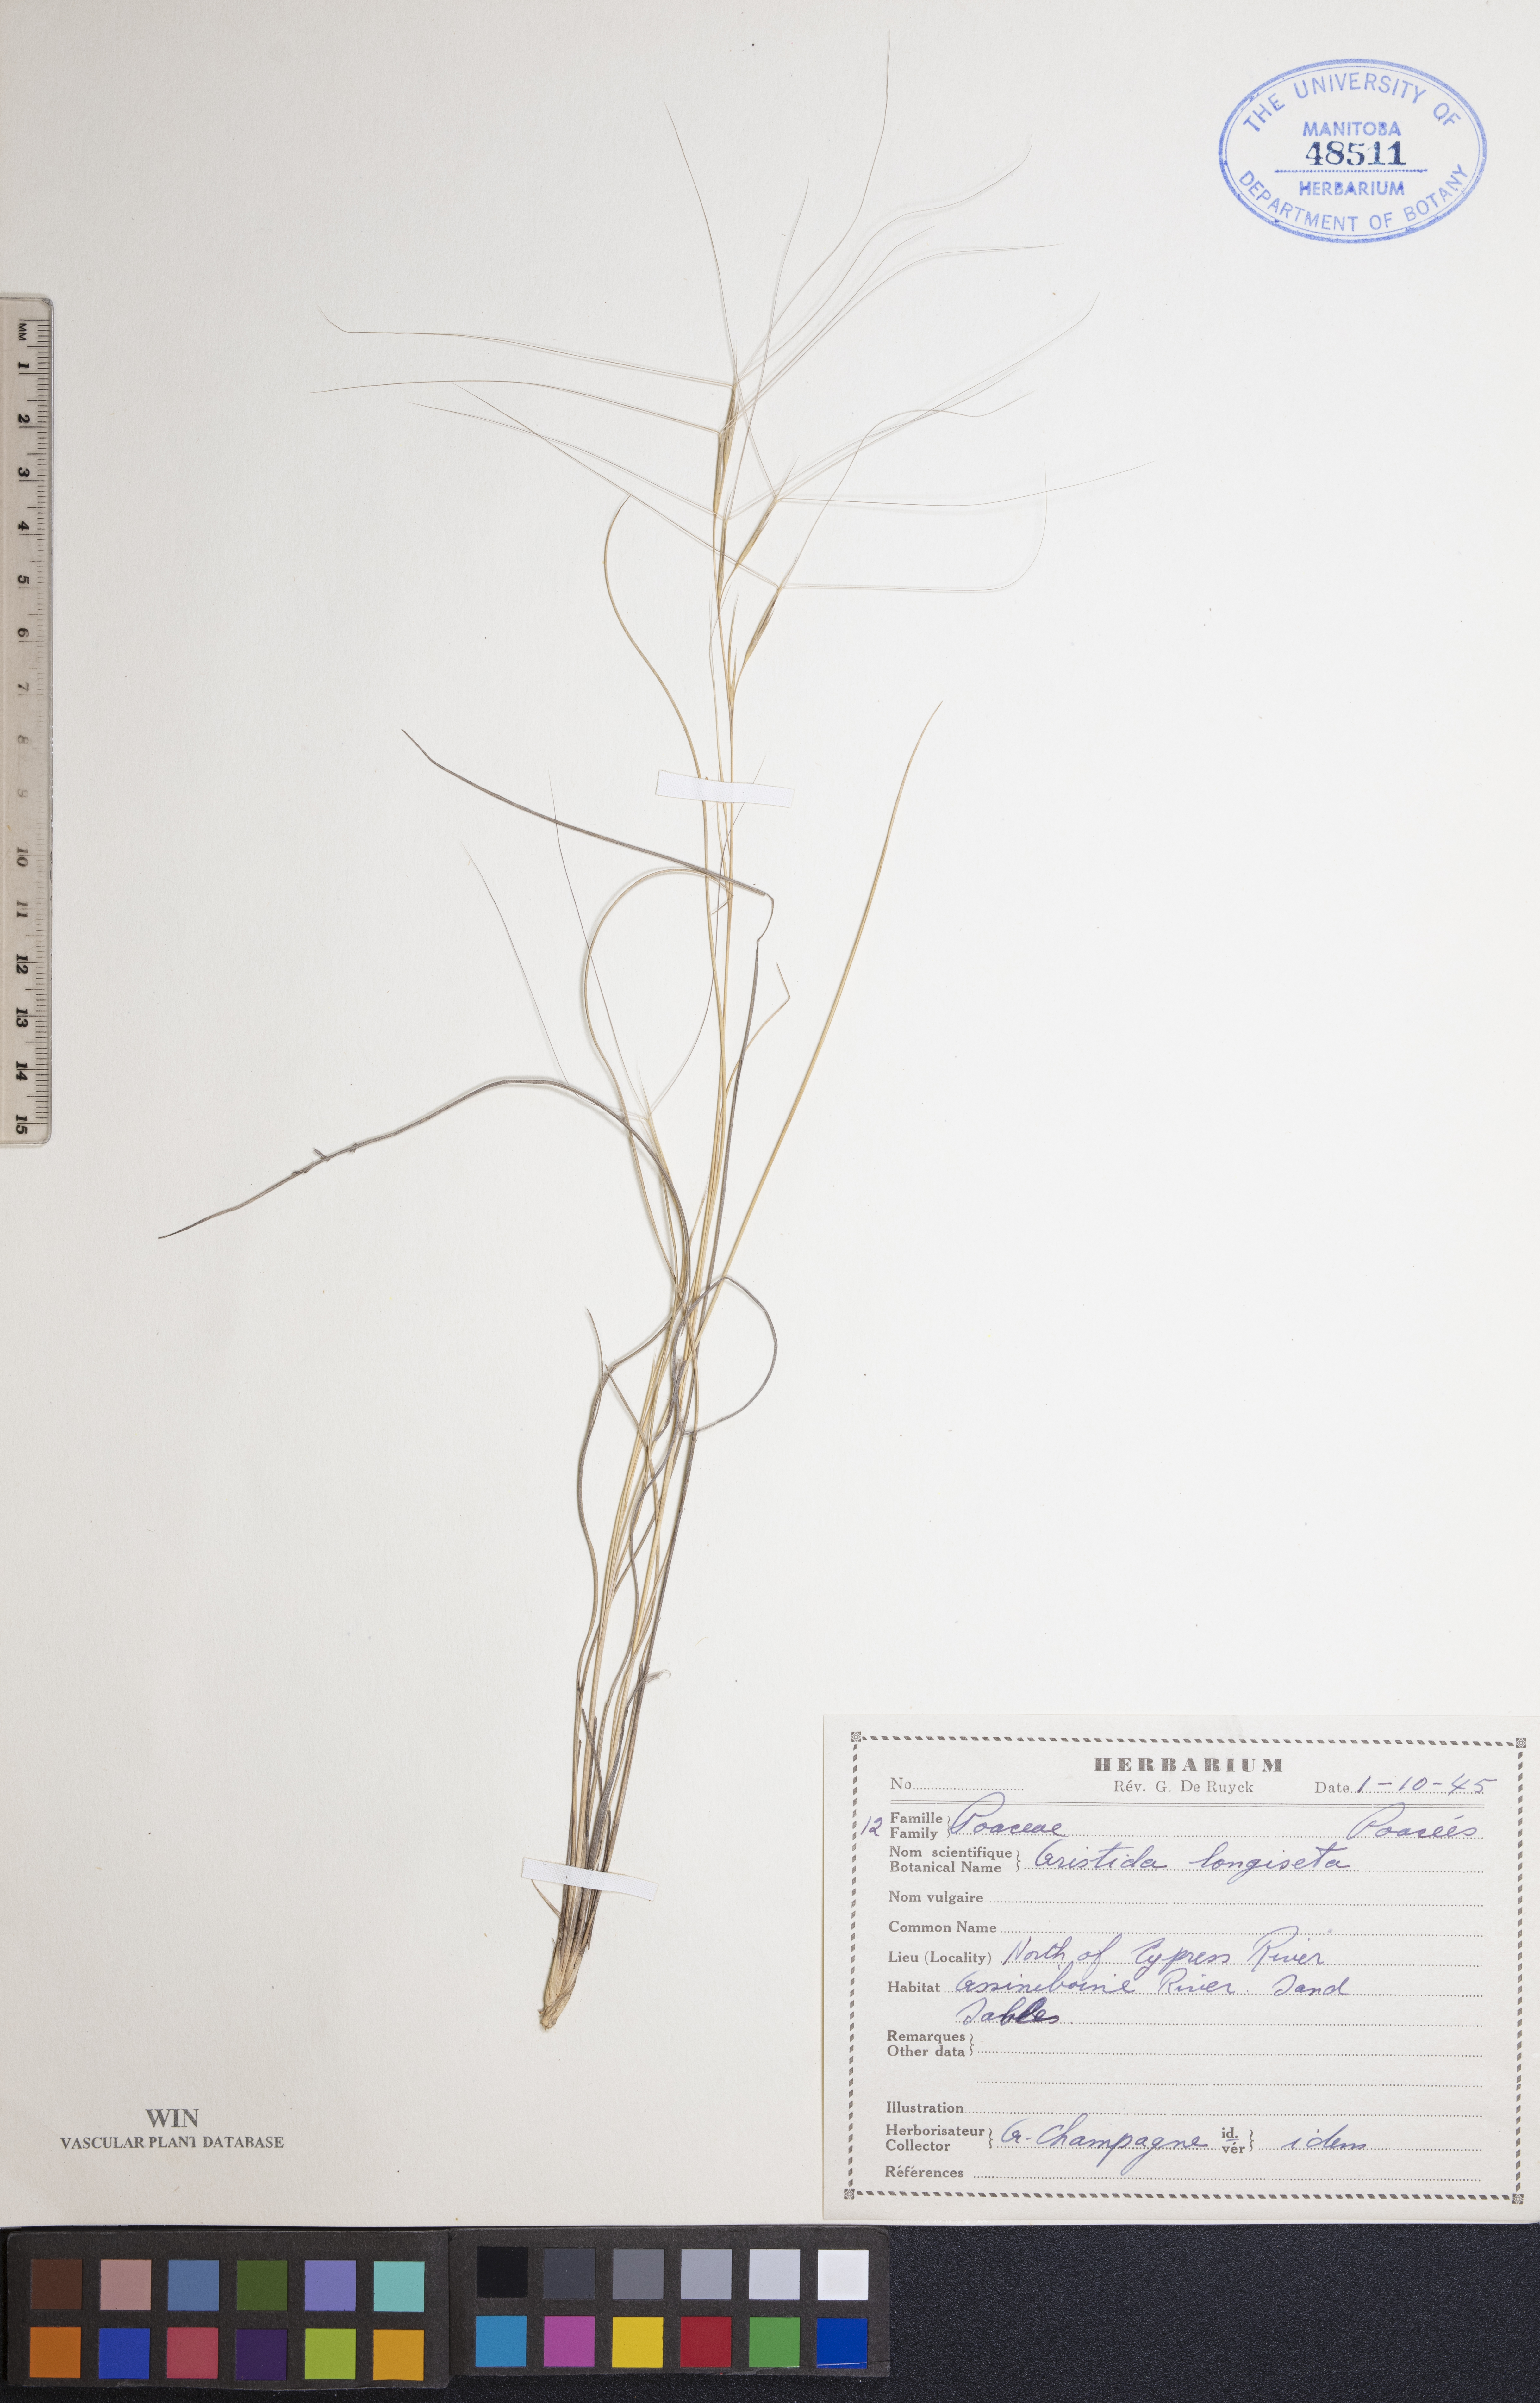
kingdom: Plantae
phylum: Tracheophyta
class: Liliopsida
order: Poales
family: Poaceae
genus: Aristida
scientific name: Aristida longiseta
